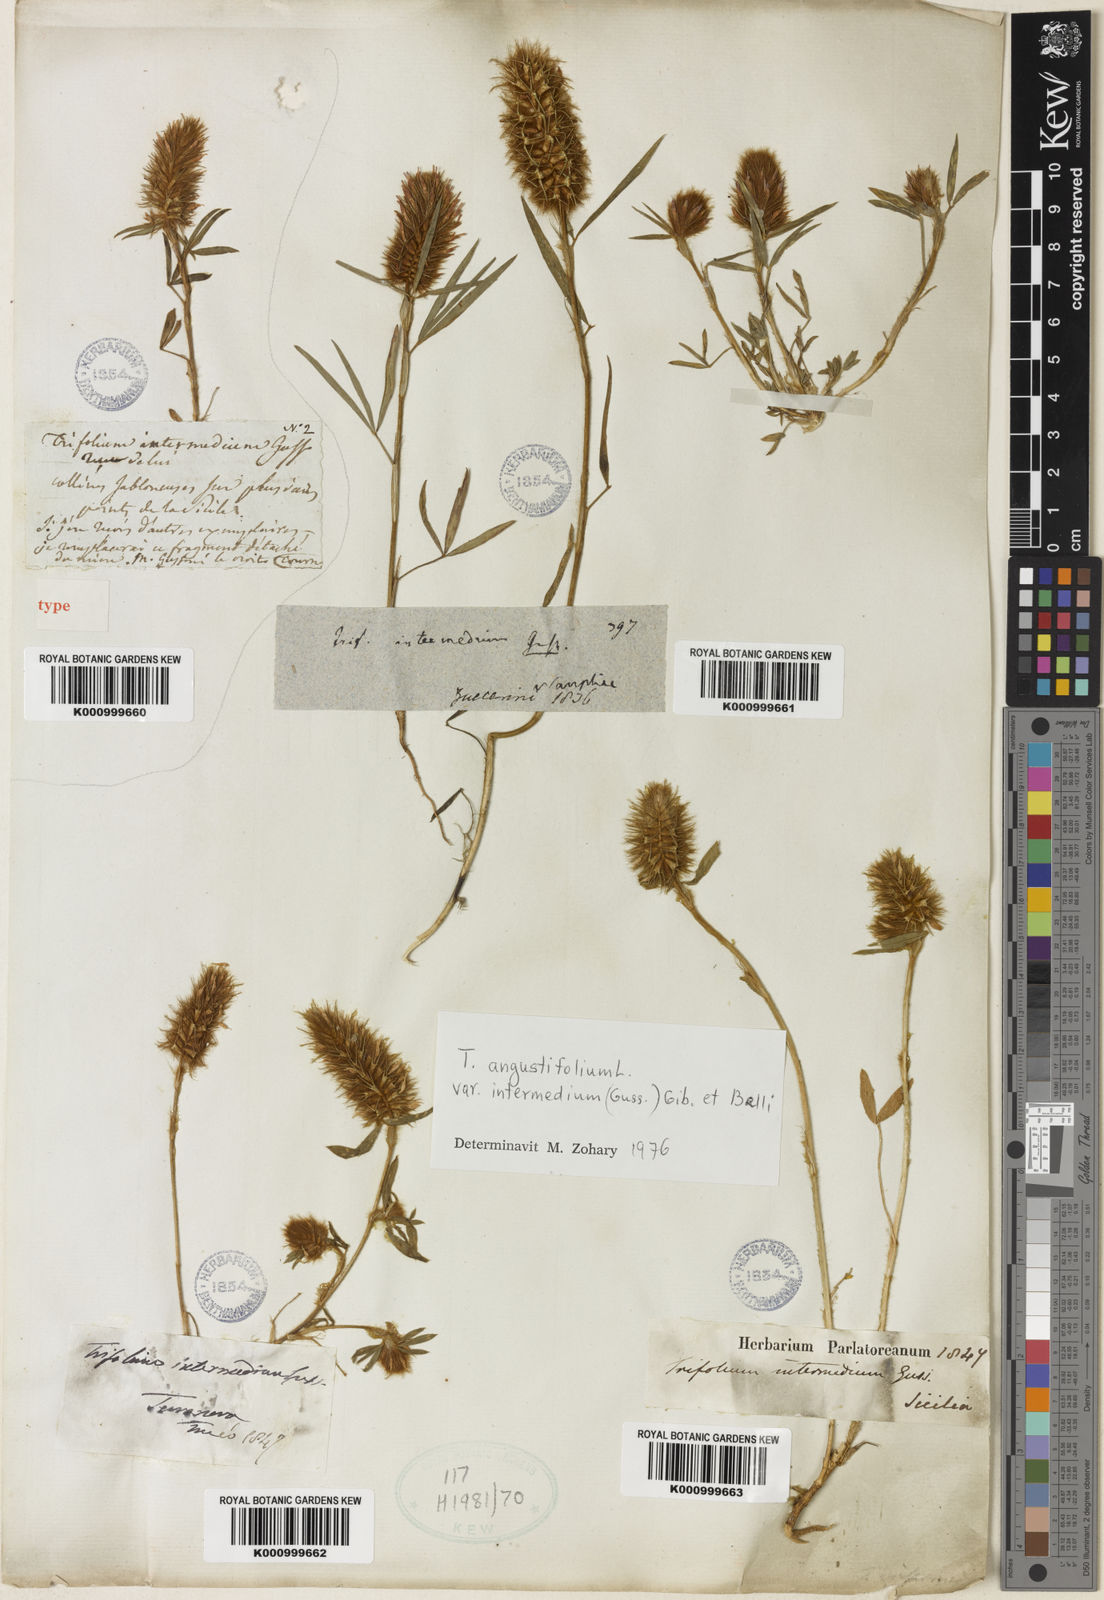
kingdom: Plantae
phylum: Tracheophyta
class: Magnoliopsida
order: Fabales
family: Fabaceae
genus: Trifolium
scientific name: Trifolium angustifolium
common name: Narrow clover
